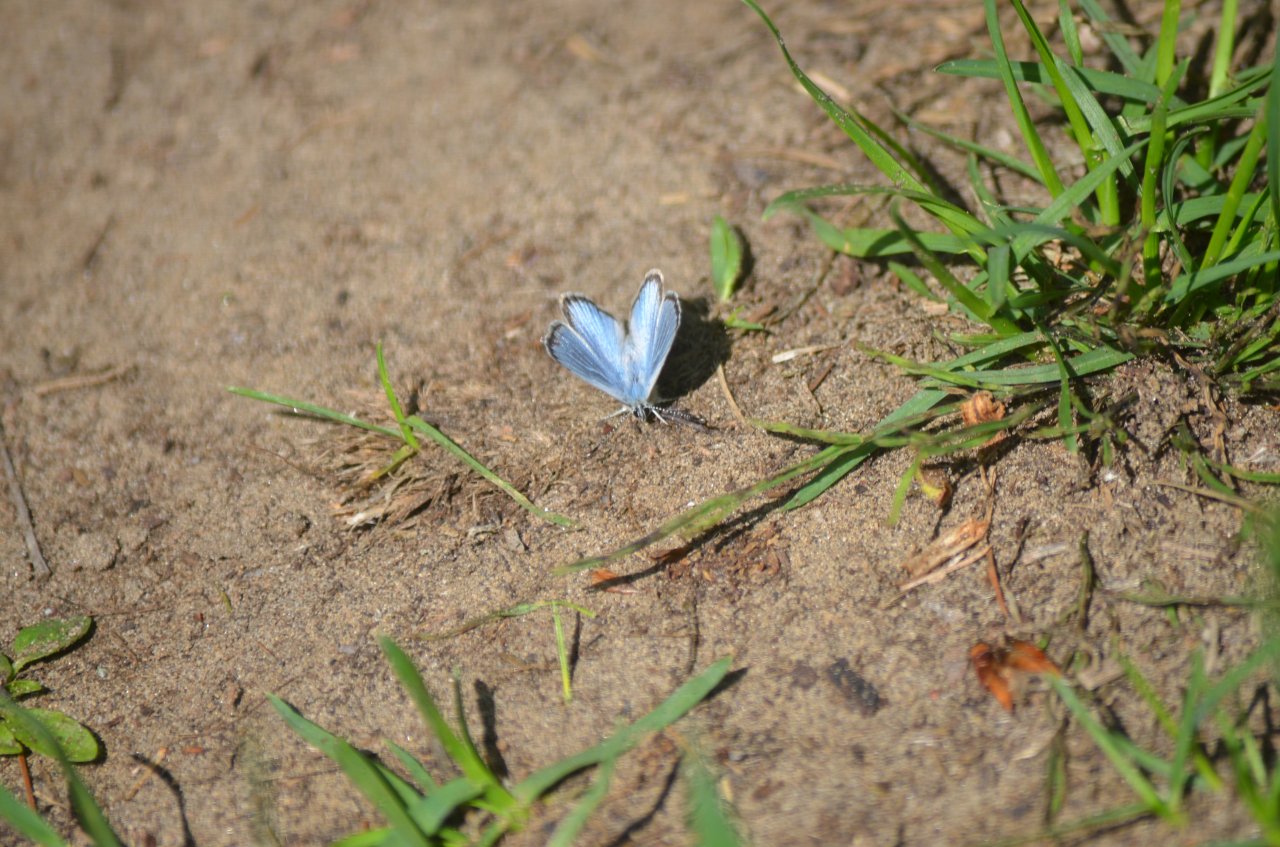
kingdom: Animalia
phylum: Arthropoda
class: Insecta
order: Lepidoptera
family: Lycaenidae
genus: Glaucopsyche
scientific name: Glaucopsyche lygdamus
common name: Silvery Blue
